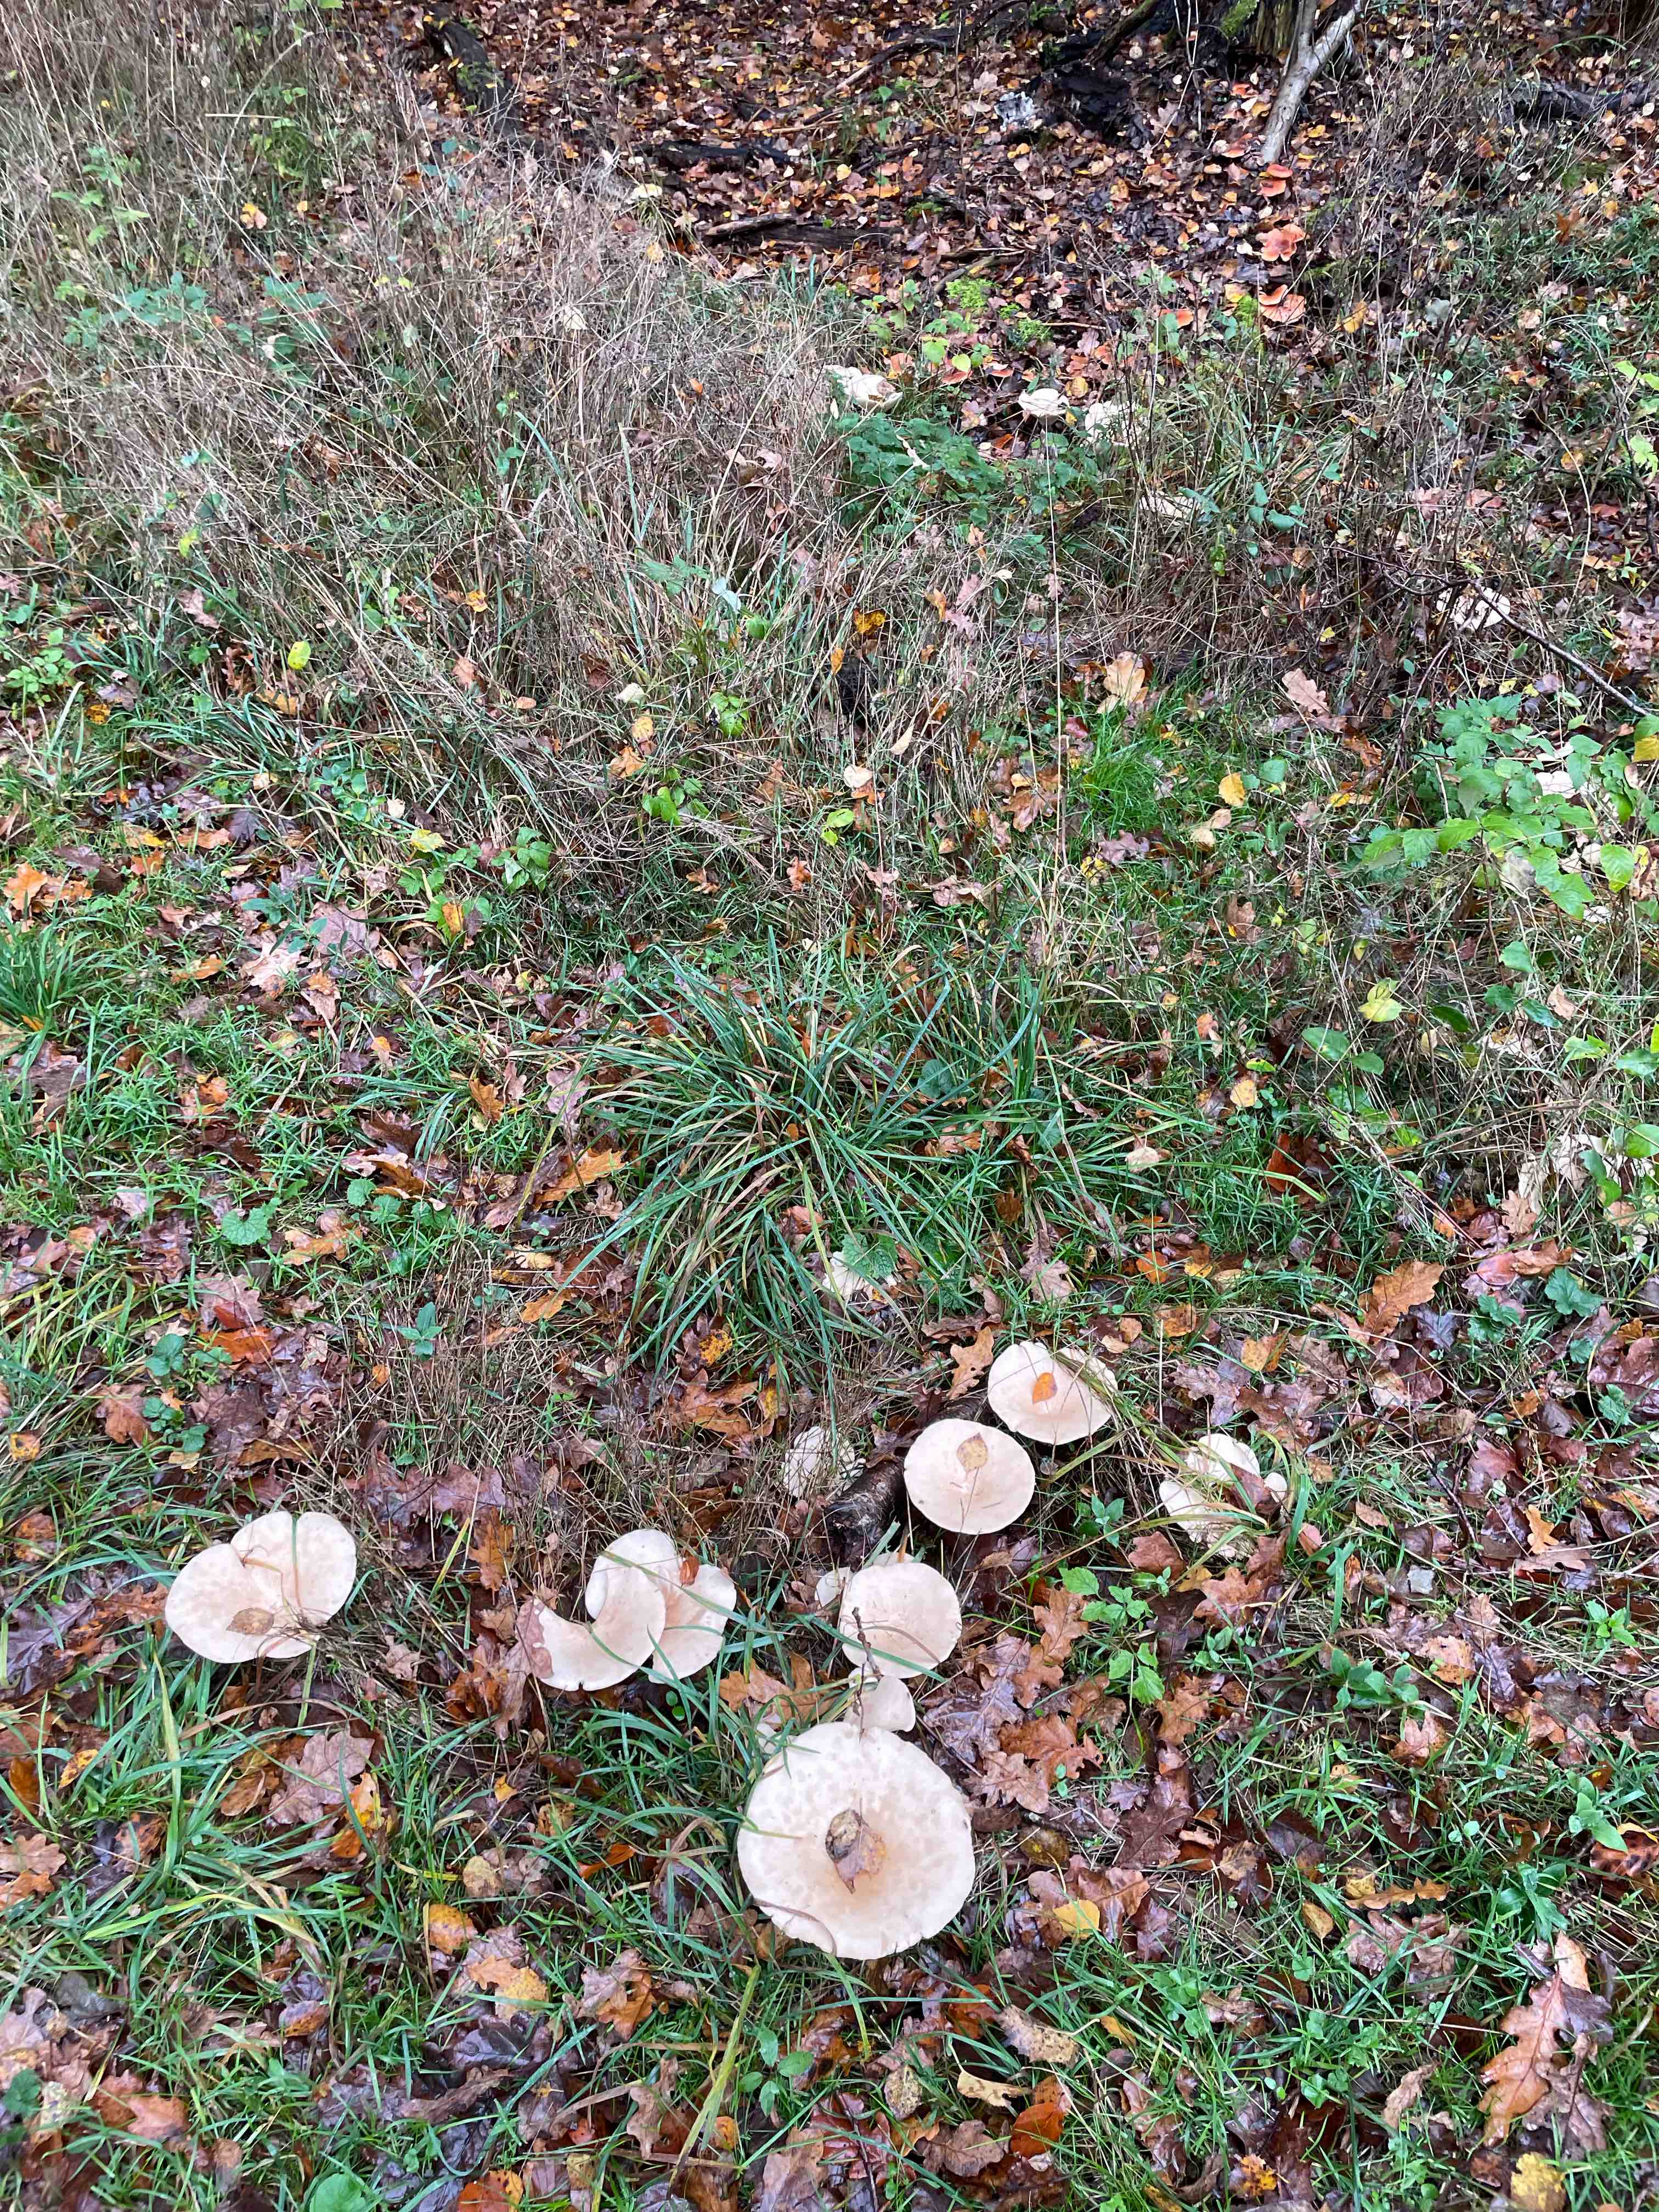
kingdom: Fungi
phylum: Basidiomycota
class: Agaricomycetes
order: Agaricales
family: Tricholomataceae
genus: Infundibulicybe
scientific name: Infundibulicybe geotropa
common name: stor tragthat
